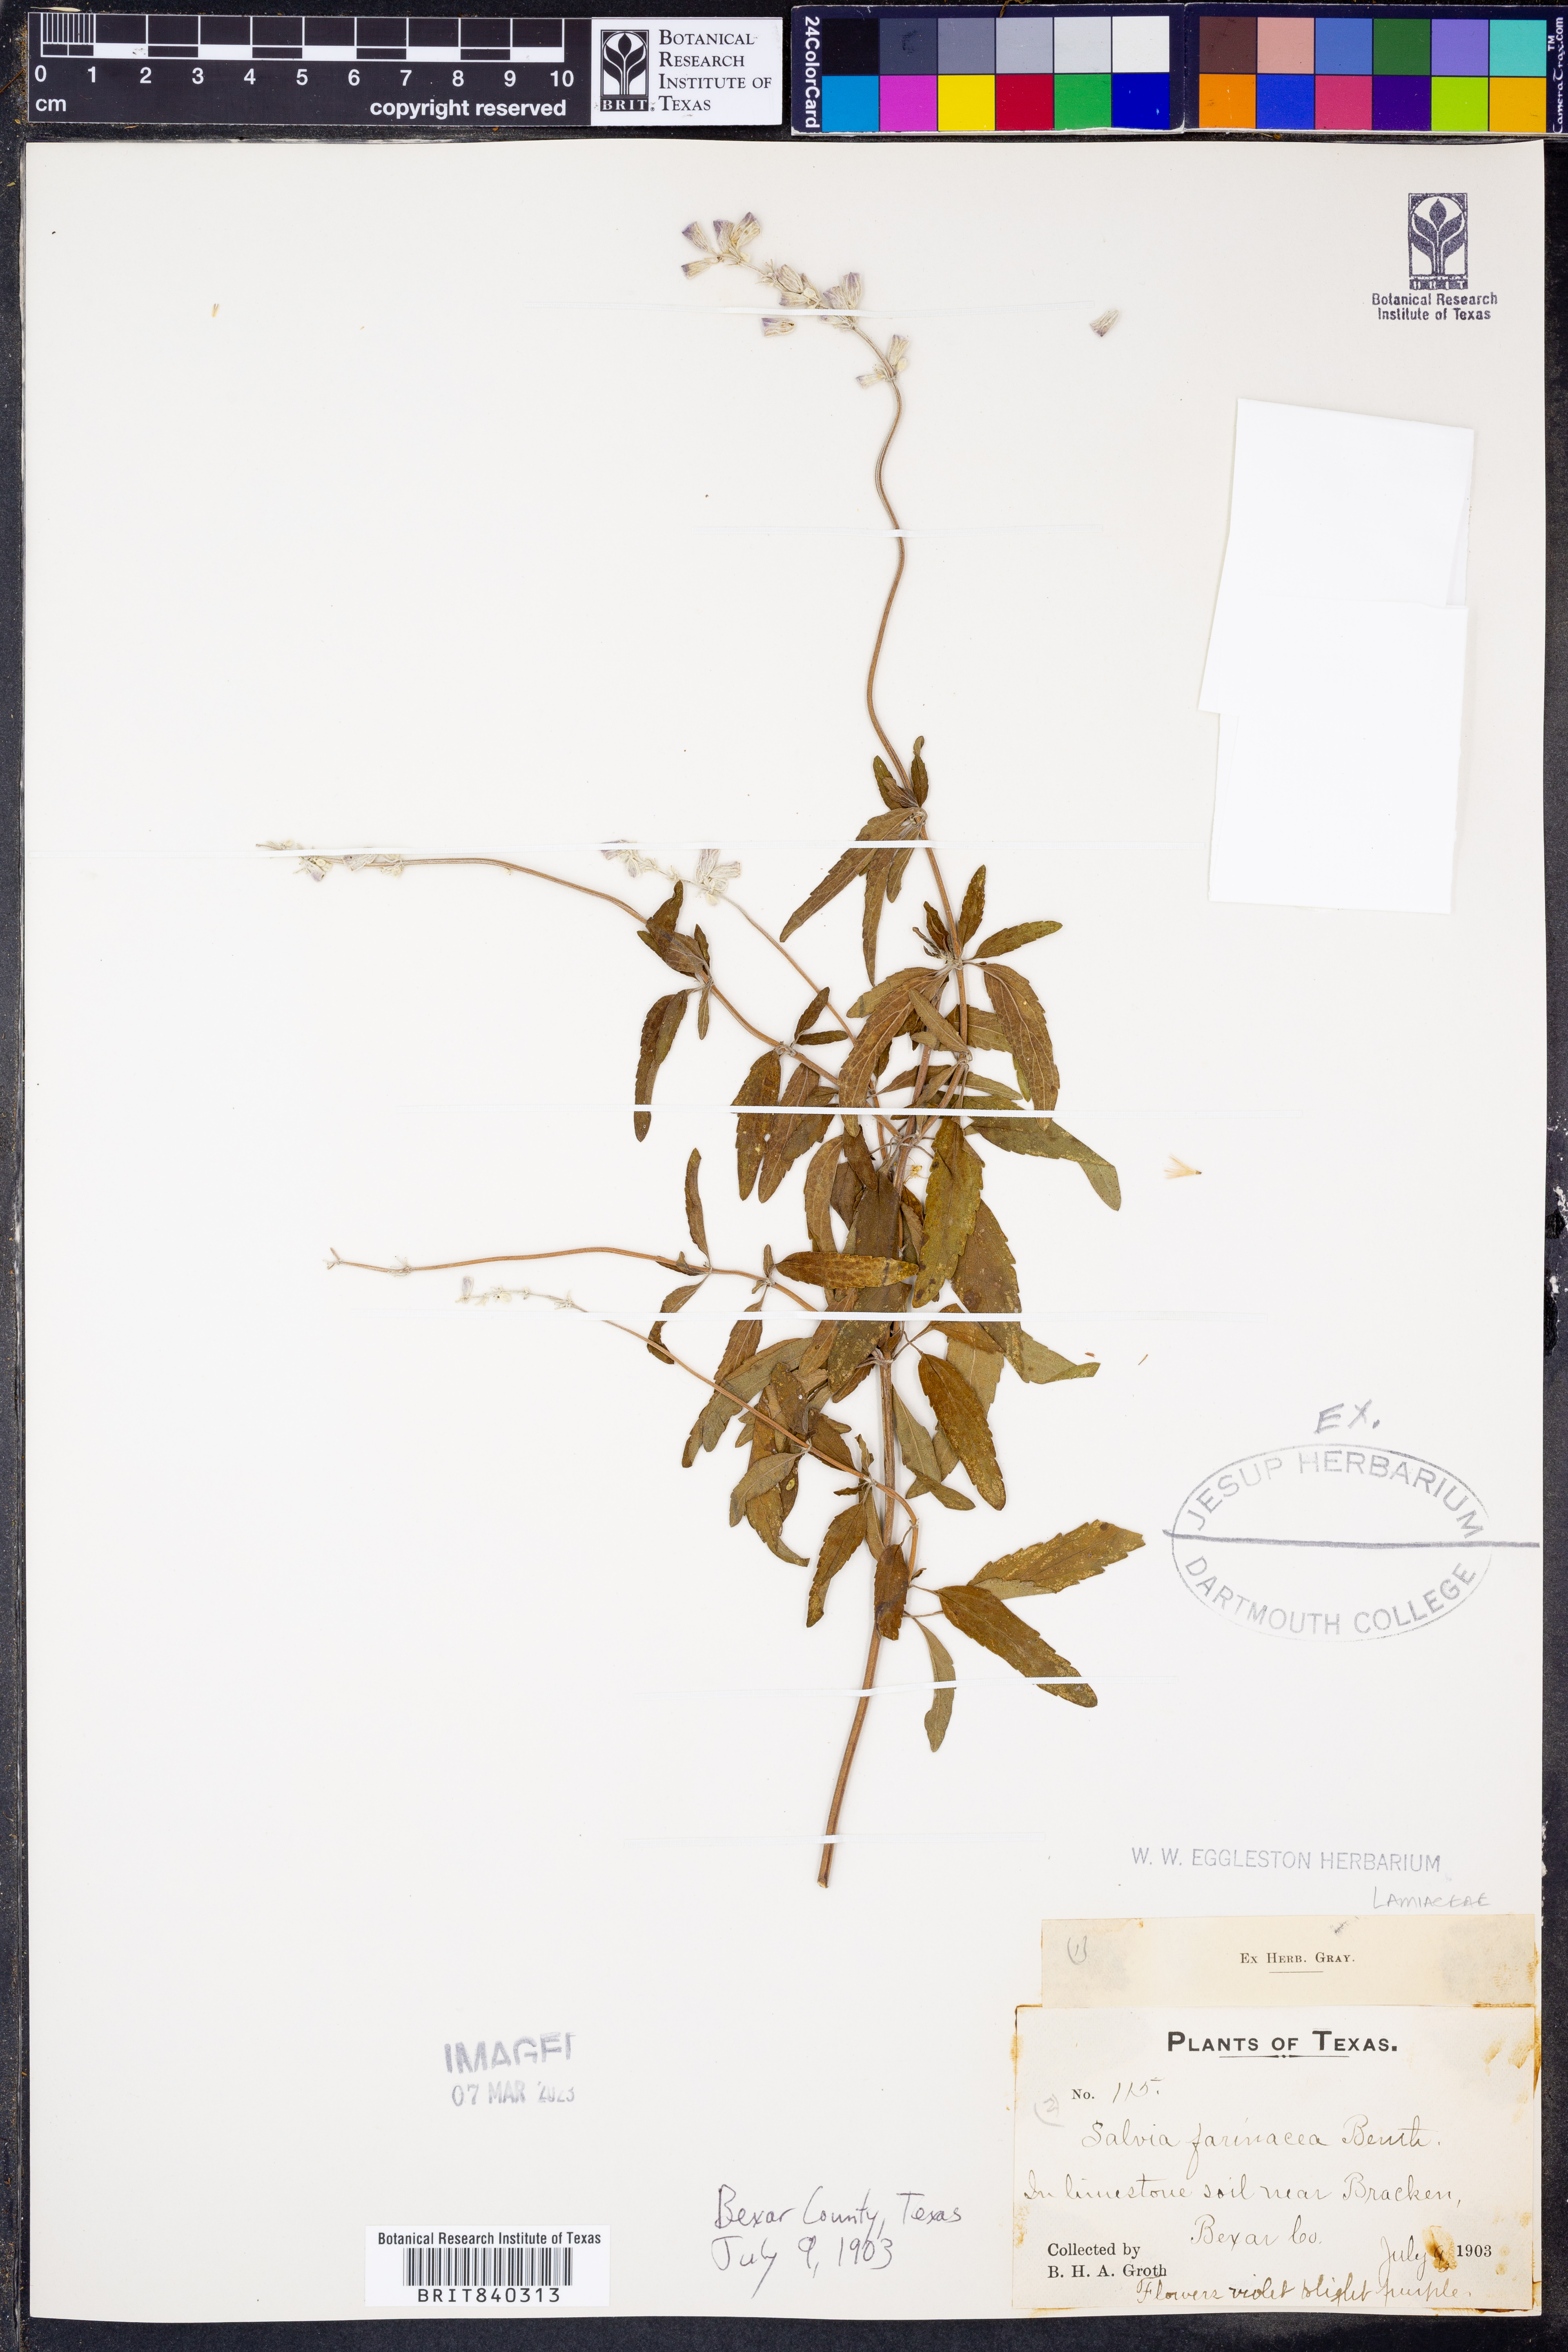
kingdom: Plantae
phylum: Tracheophyta
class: Magnoliopsida
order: Lamiales
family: Lamiaceae
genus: Salvia
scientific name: Salvia farinacea
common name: Mealy sage
